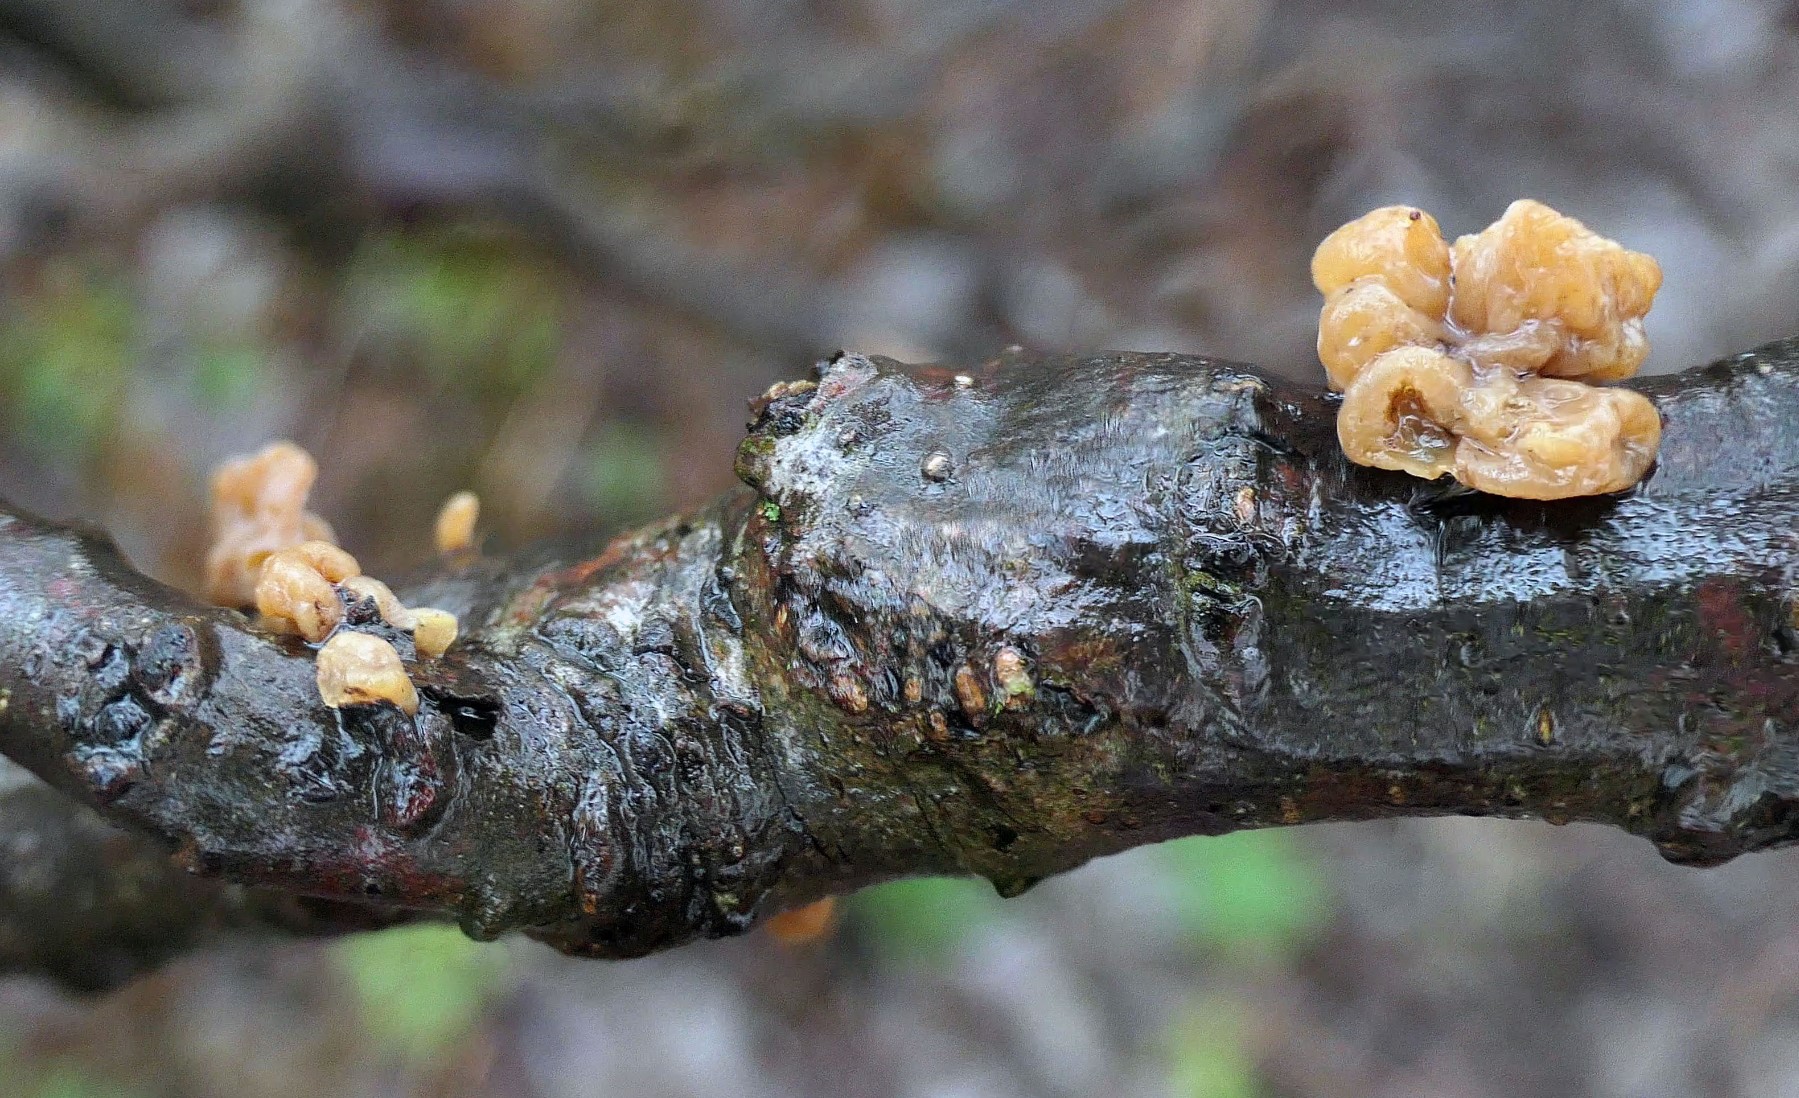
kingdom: Fungi
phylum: Basidiomycota
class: Agaricomycetes
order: Agaricales
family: Typhulaceae
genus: Typhula
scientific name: Typhula contorta
